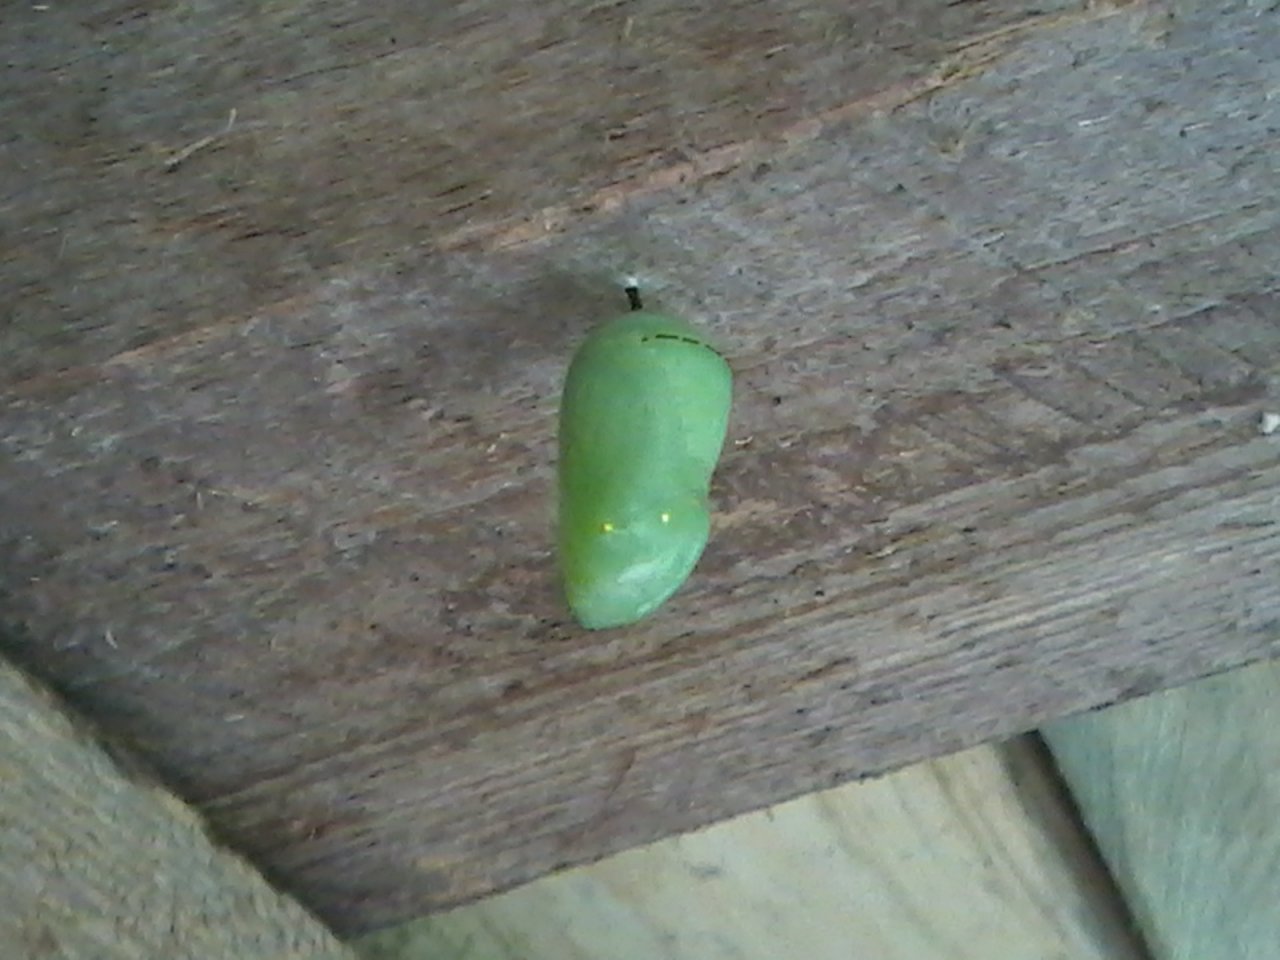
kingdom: Animalia
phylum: Arthropoda
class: Insecta
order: Lepidoptera
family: Nymphalidae
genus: Danaus
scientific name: Danaus plexippus
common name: Monarch
